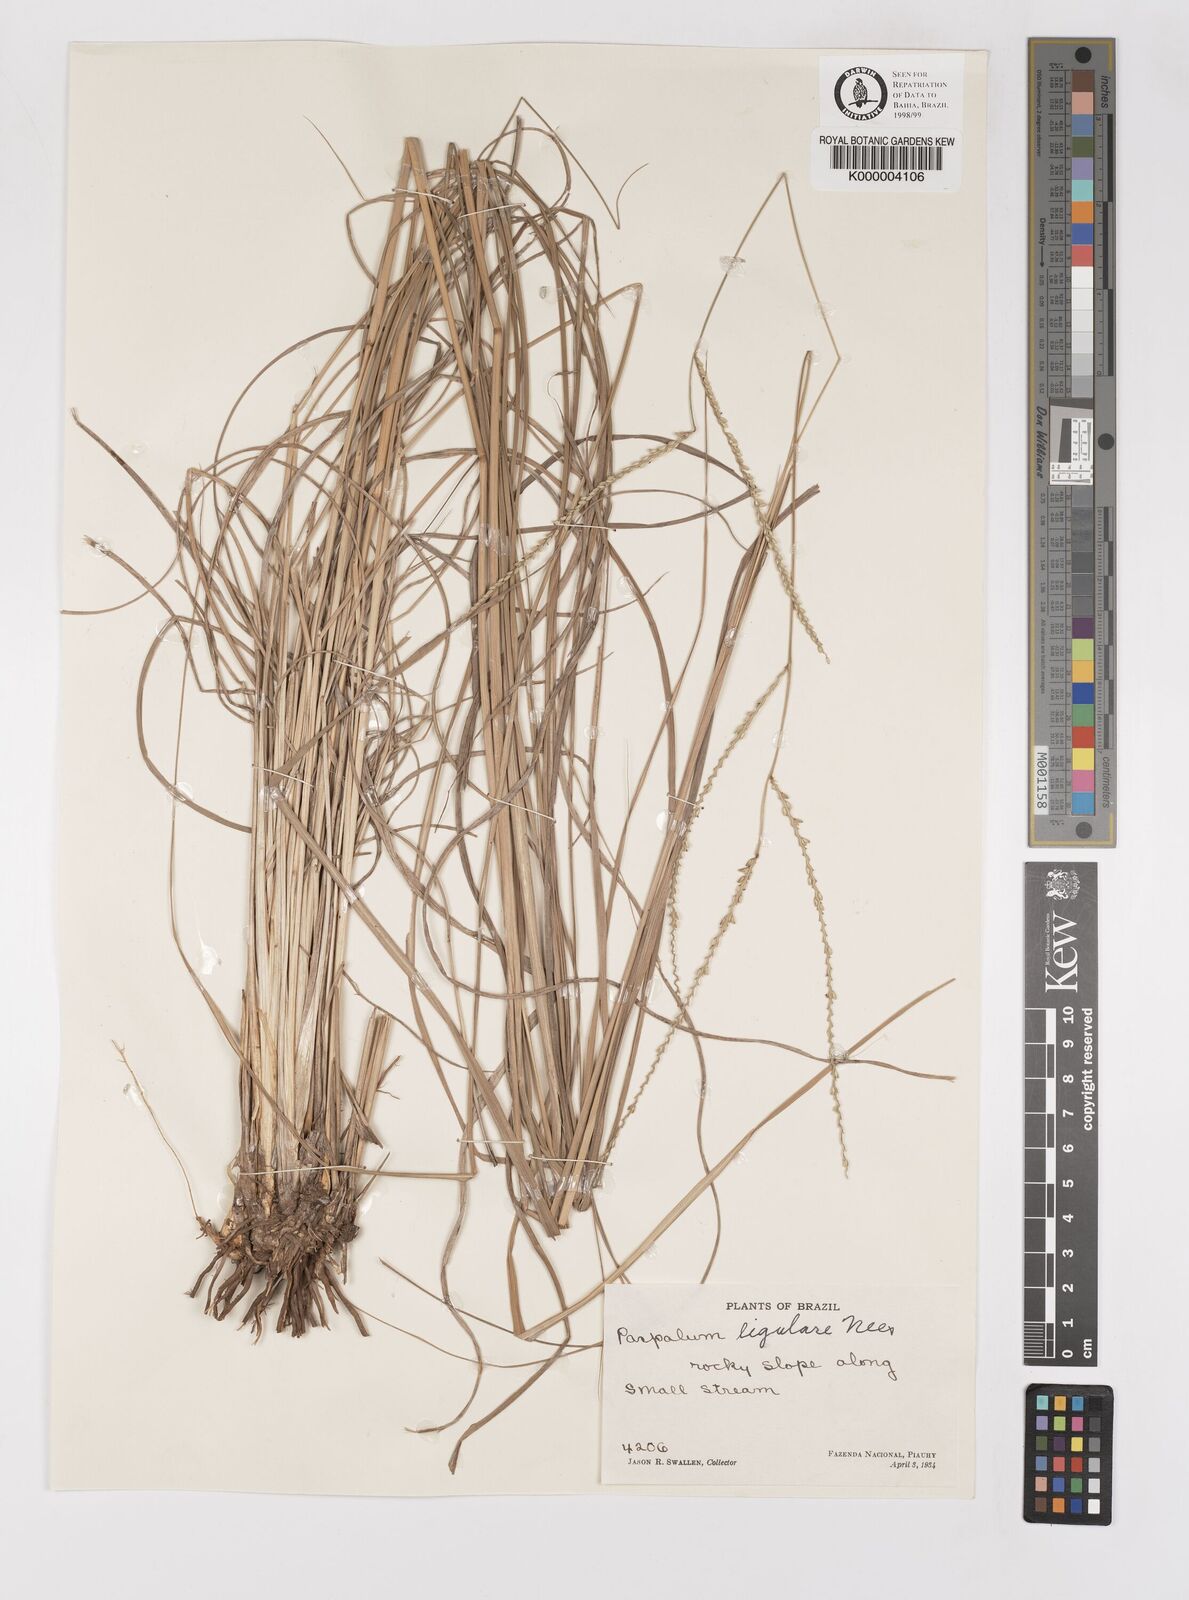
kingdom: Plantae
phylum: Tracheophyta
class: Liliopsida
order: Poales
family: Poaceae
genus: Paspalum
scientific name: Paspalum ligulare
